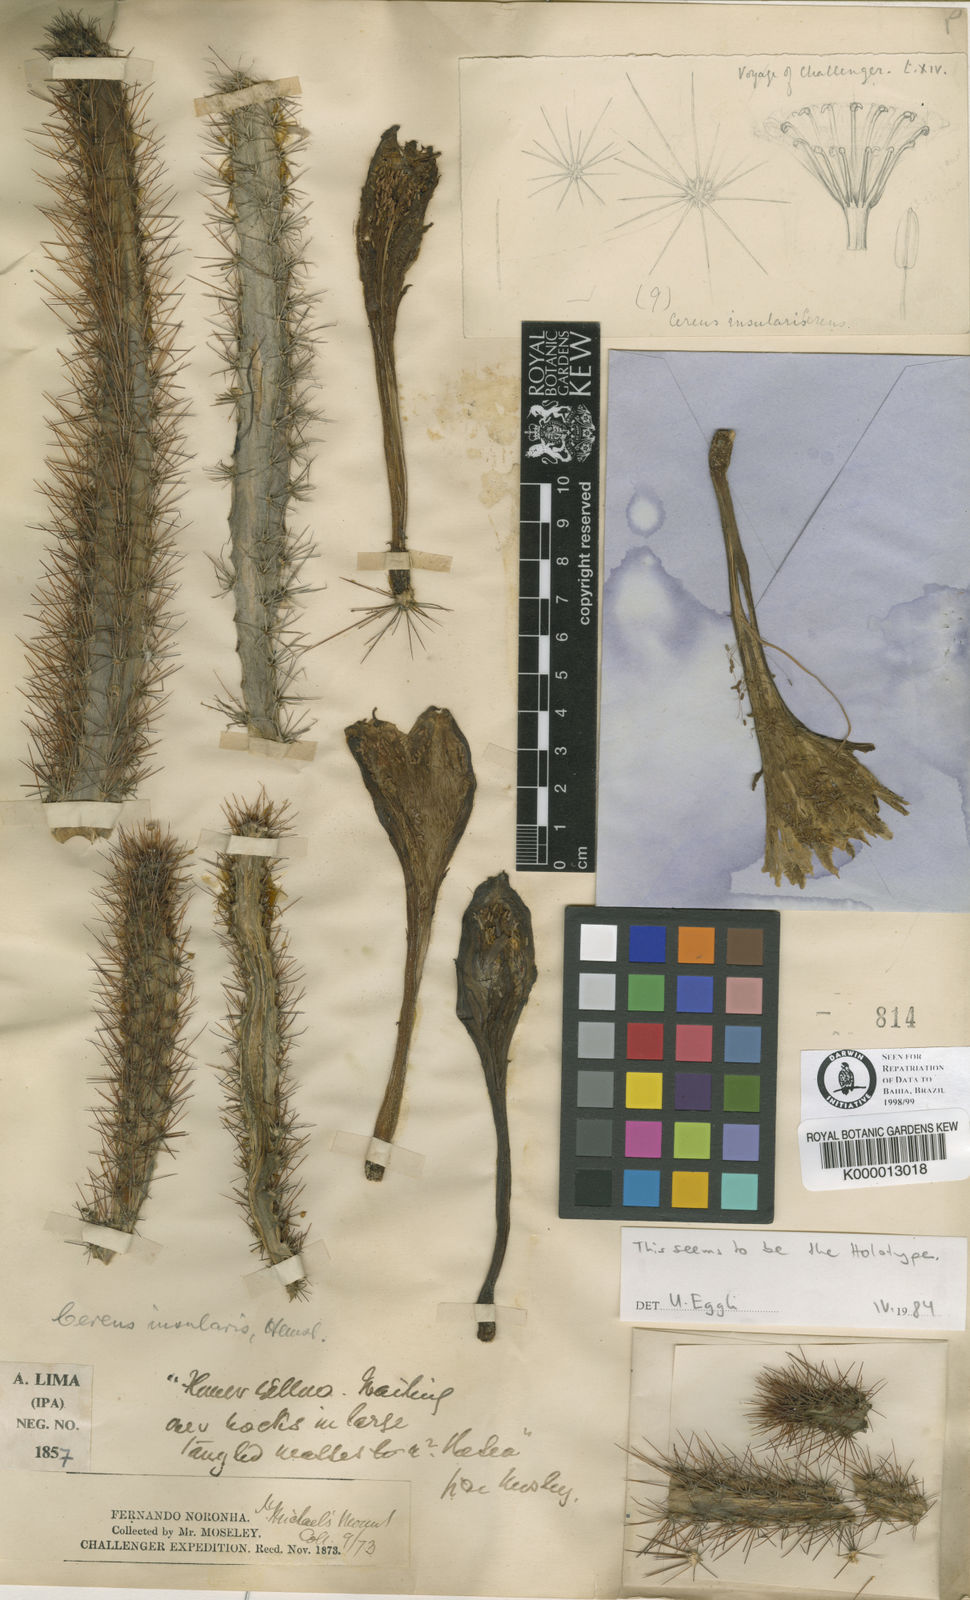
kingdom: Plantae
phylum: Tracheophyta
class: Magnoliopsida
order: Caryophyllales
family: Cactaceae
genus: Cereus
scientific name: Cereus insularis
